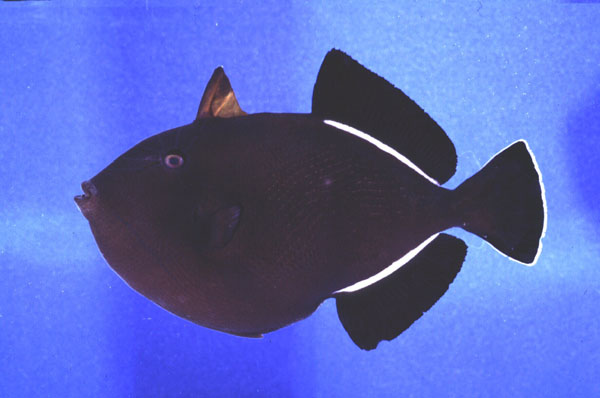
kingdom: Animalia
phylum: Chordata
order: Tetraodontiformes
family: Balistidae
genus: Melichthys
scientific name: Melichthys indicus
